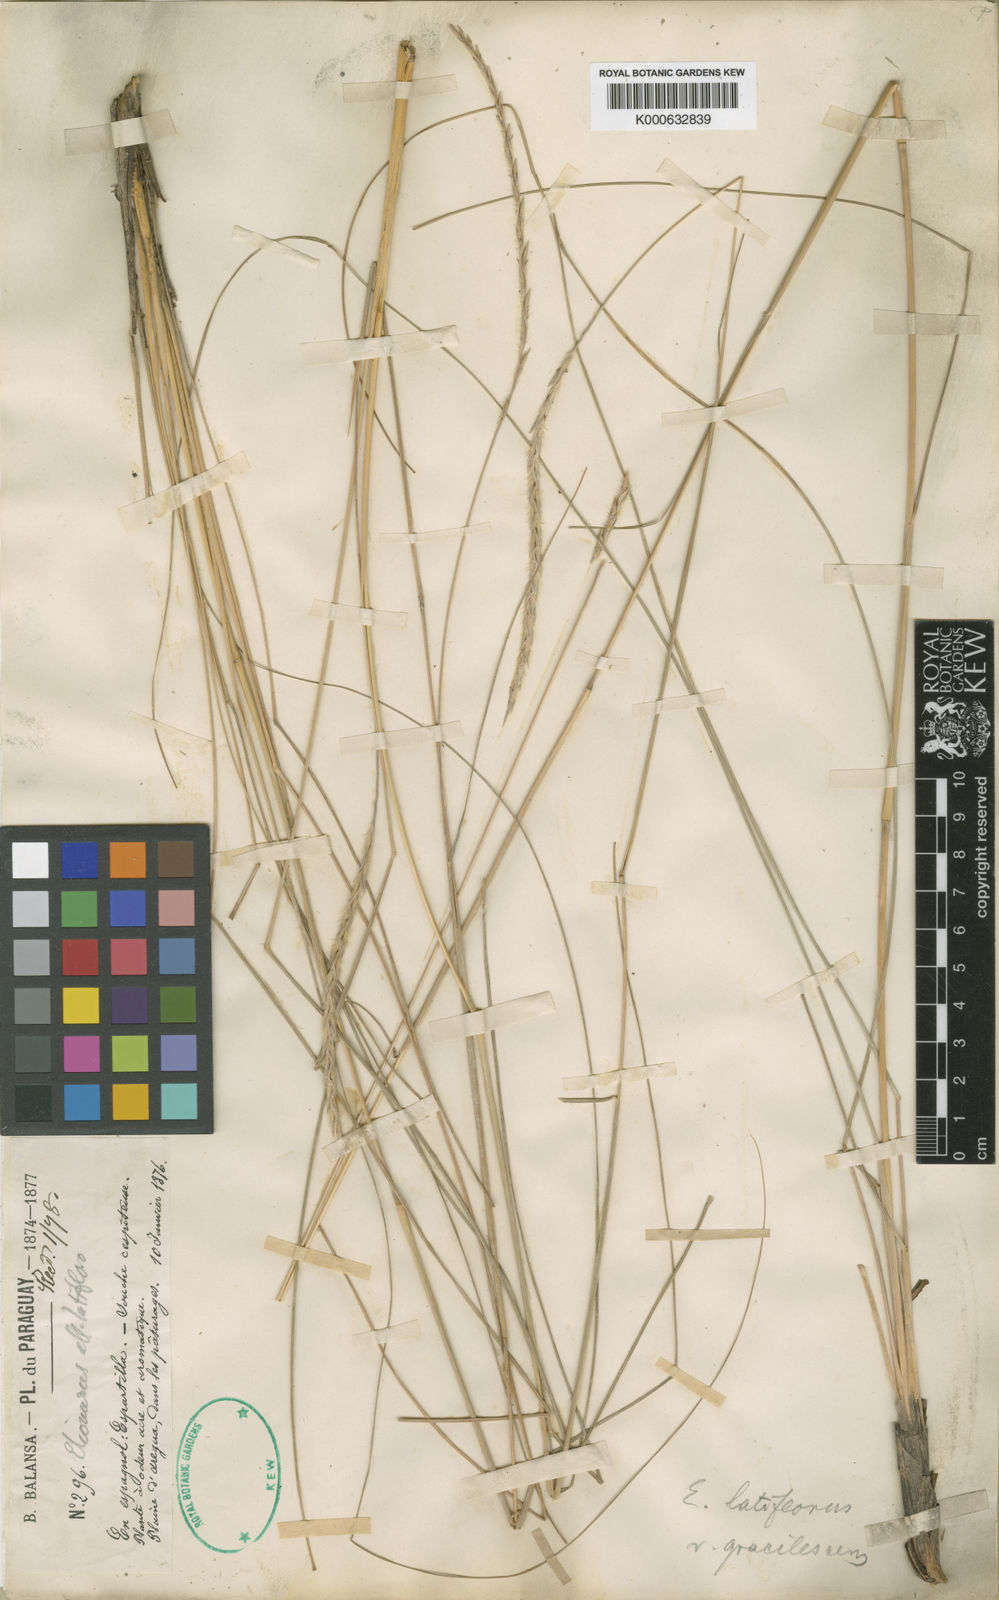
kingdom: Plantae
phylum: Tracheophyta
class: Liliopsida
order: Poales
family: Poaceae
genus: Elionurus
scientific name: Elionurus muticus
